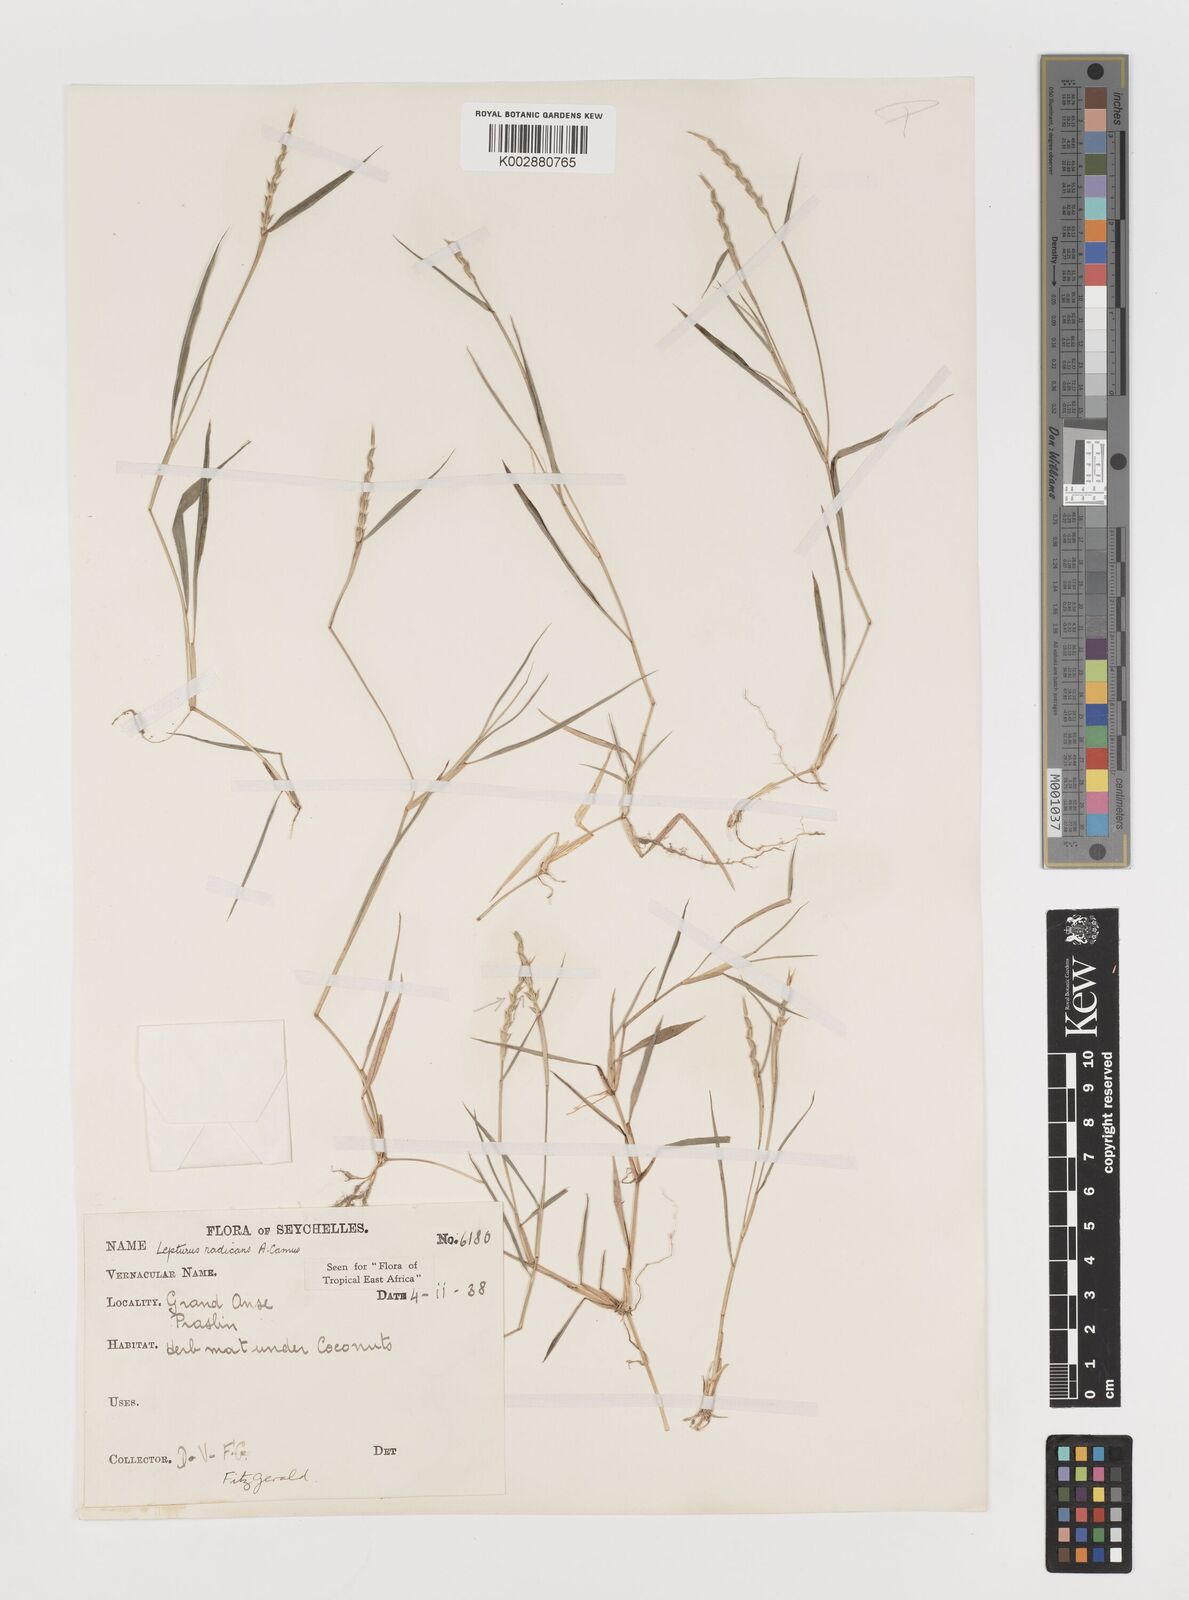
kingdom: Plantae
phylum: Tracheophyta
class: Liliopsida
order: Poales
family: Poaceae
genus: Lepturus
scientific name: Lepturus radicans
